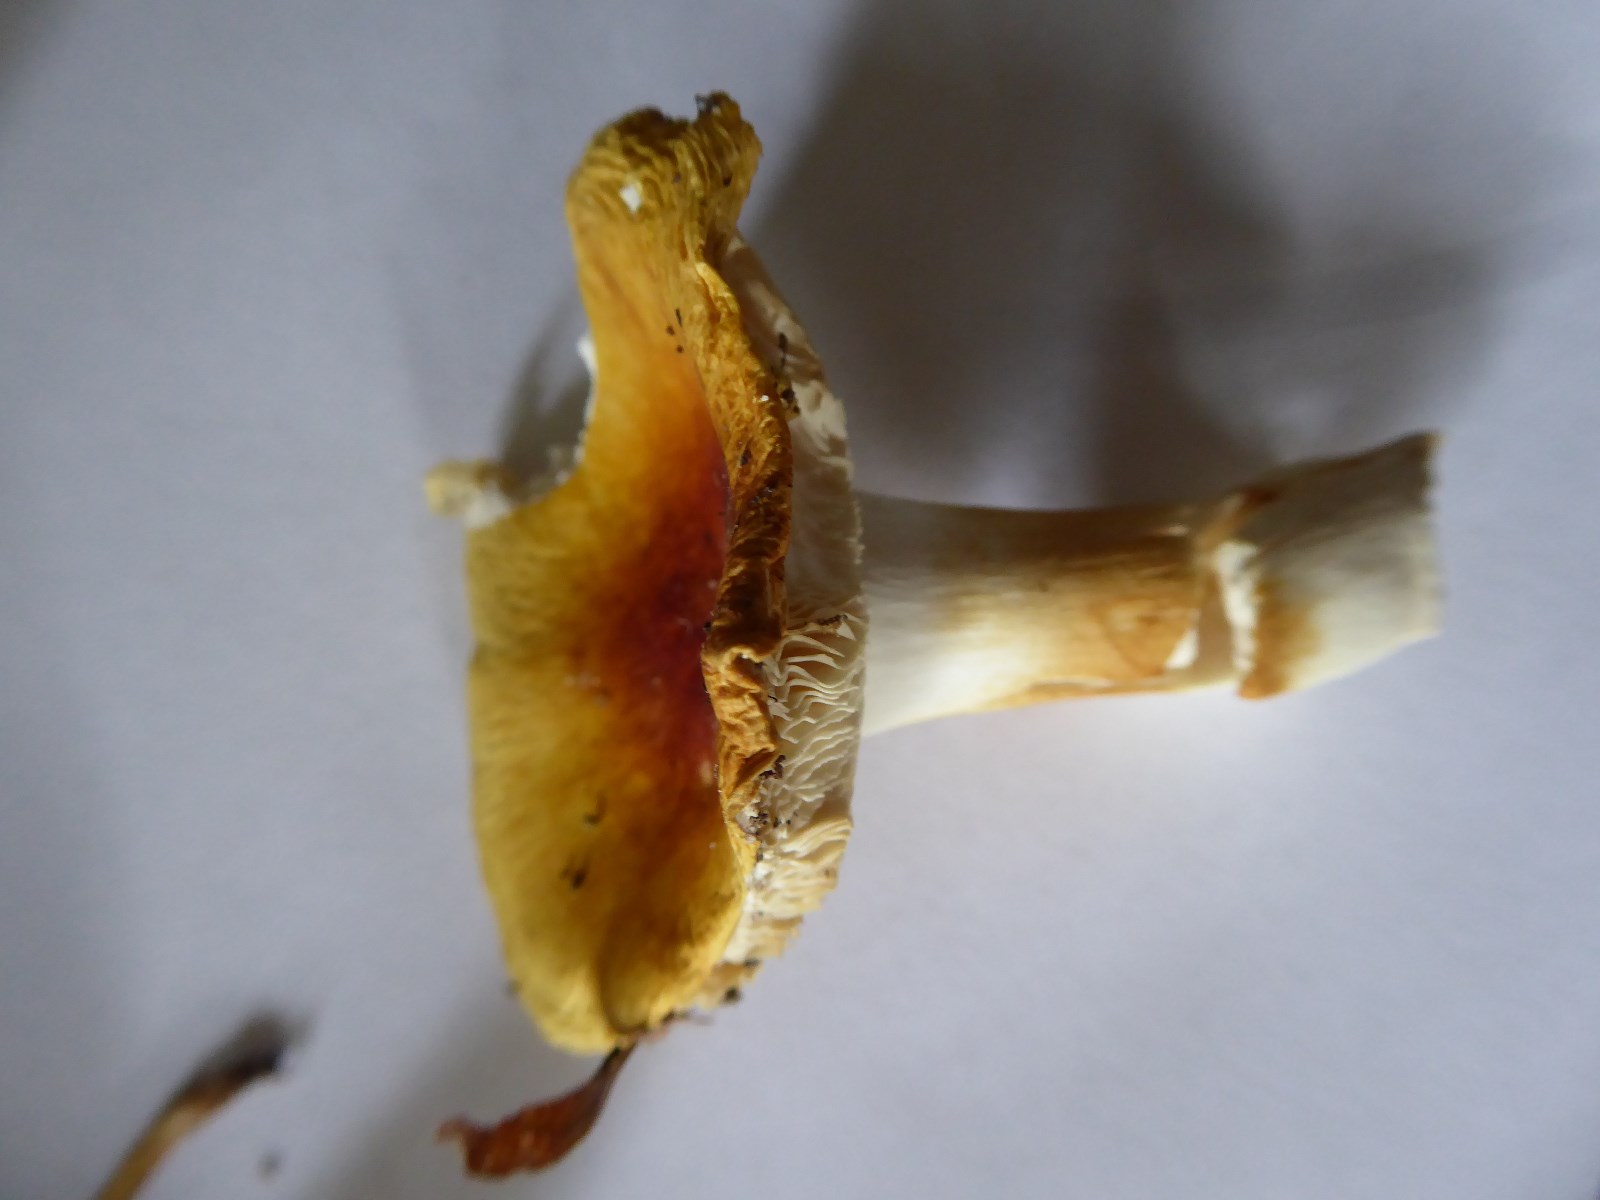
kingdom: Fungi
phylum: Basidiomycota
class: Agaricomycetes
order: Russulales
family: Russulaceae
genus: Russula
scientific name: Russula solaris
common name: sol-skørhat
